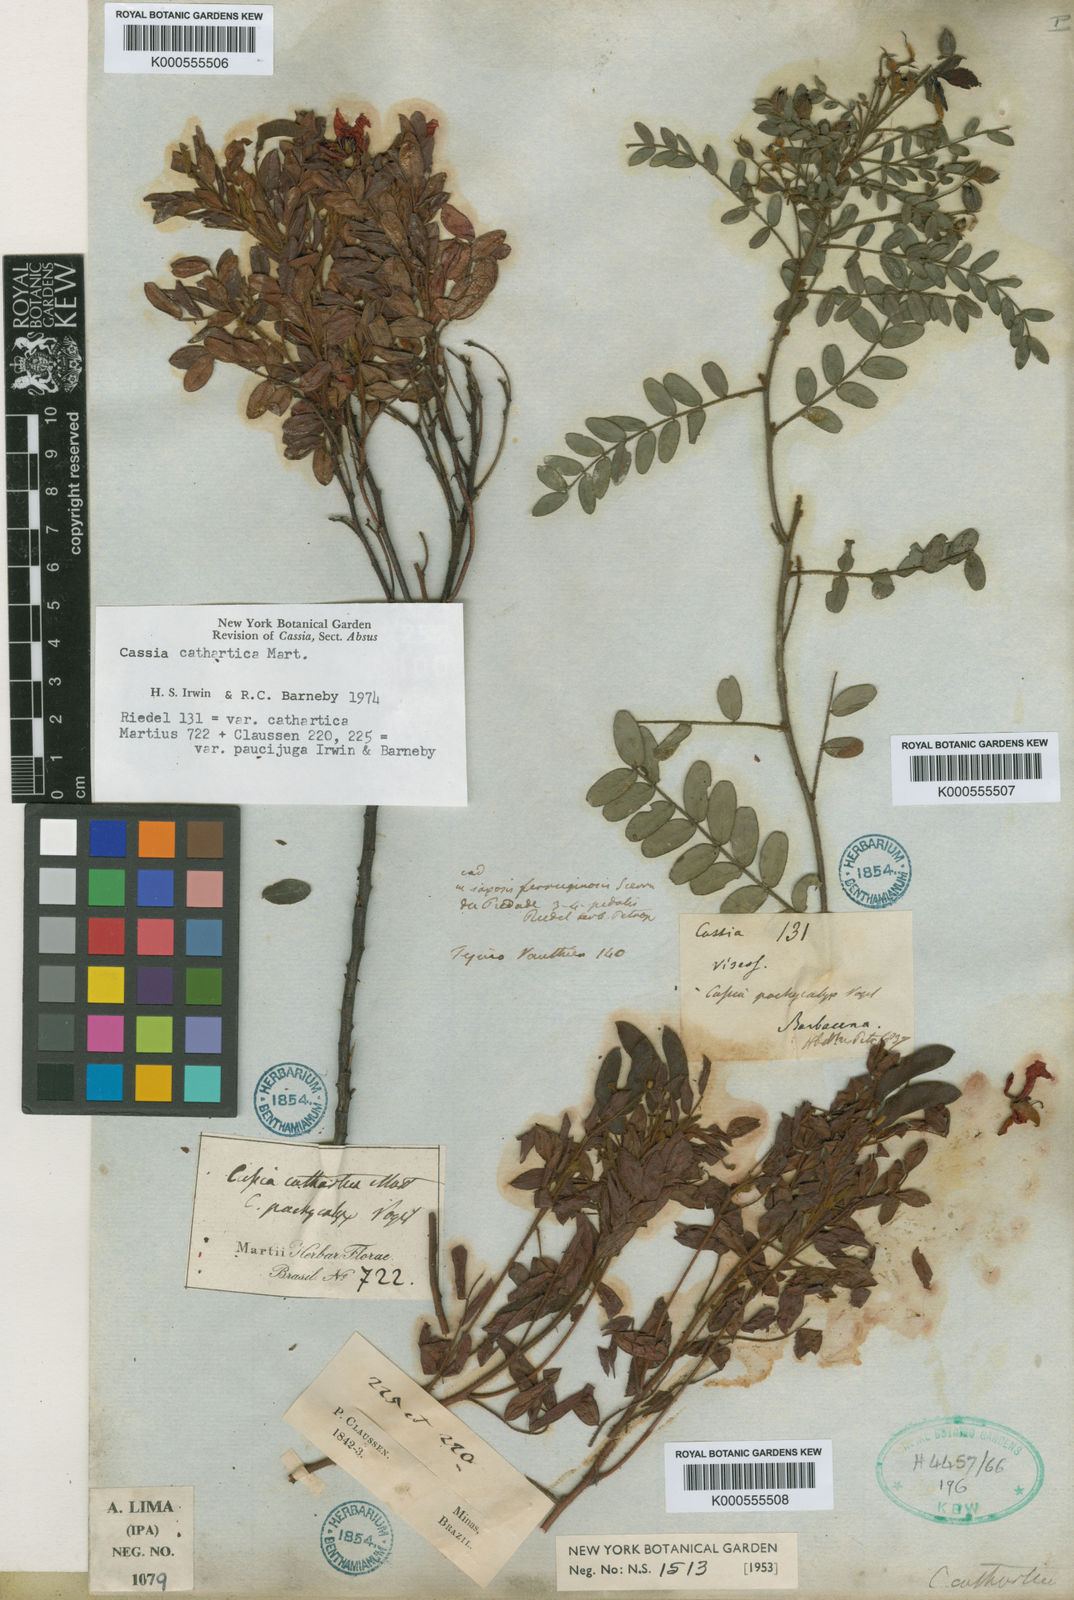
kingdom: Plantae
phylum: Tracheophyta
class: Magnoliopsida
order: Fabales
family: Fabaceae
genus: Chamaecrista
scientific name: Chamaecrista cathartica
